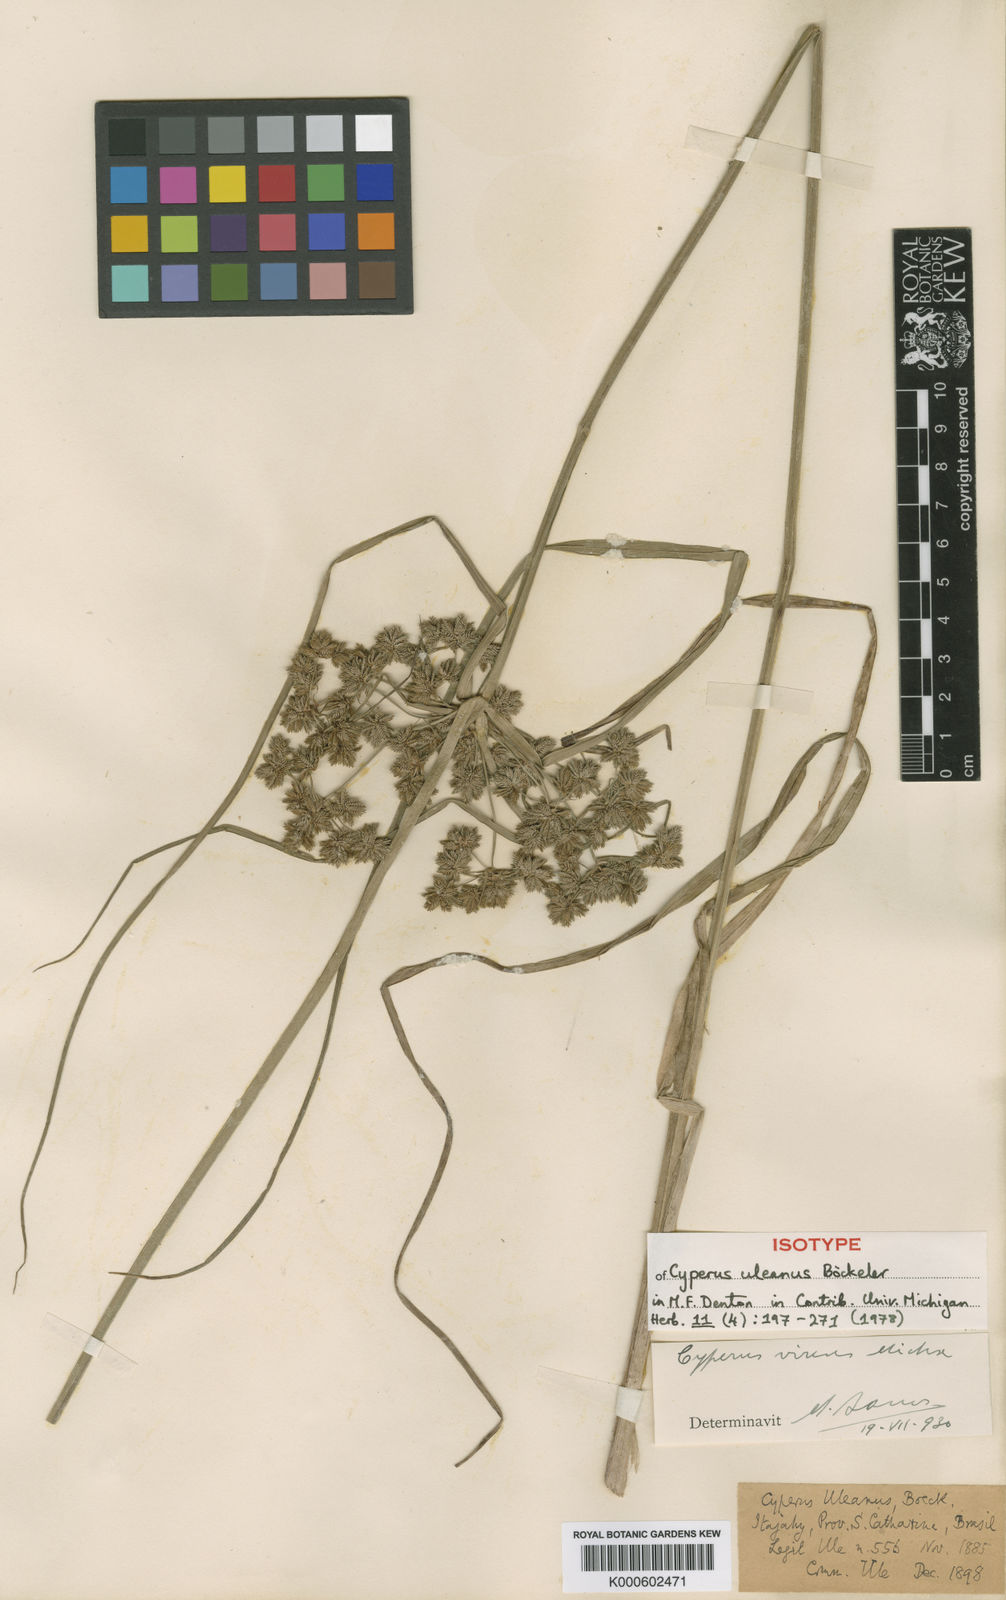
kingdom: Plantae
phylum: Tracheophyta
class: Liliopsida
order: Poales
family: Cyperaceae
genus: Cyperus
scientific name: Cyperus virens
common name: Green flatsedge
